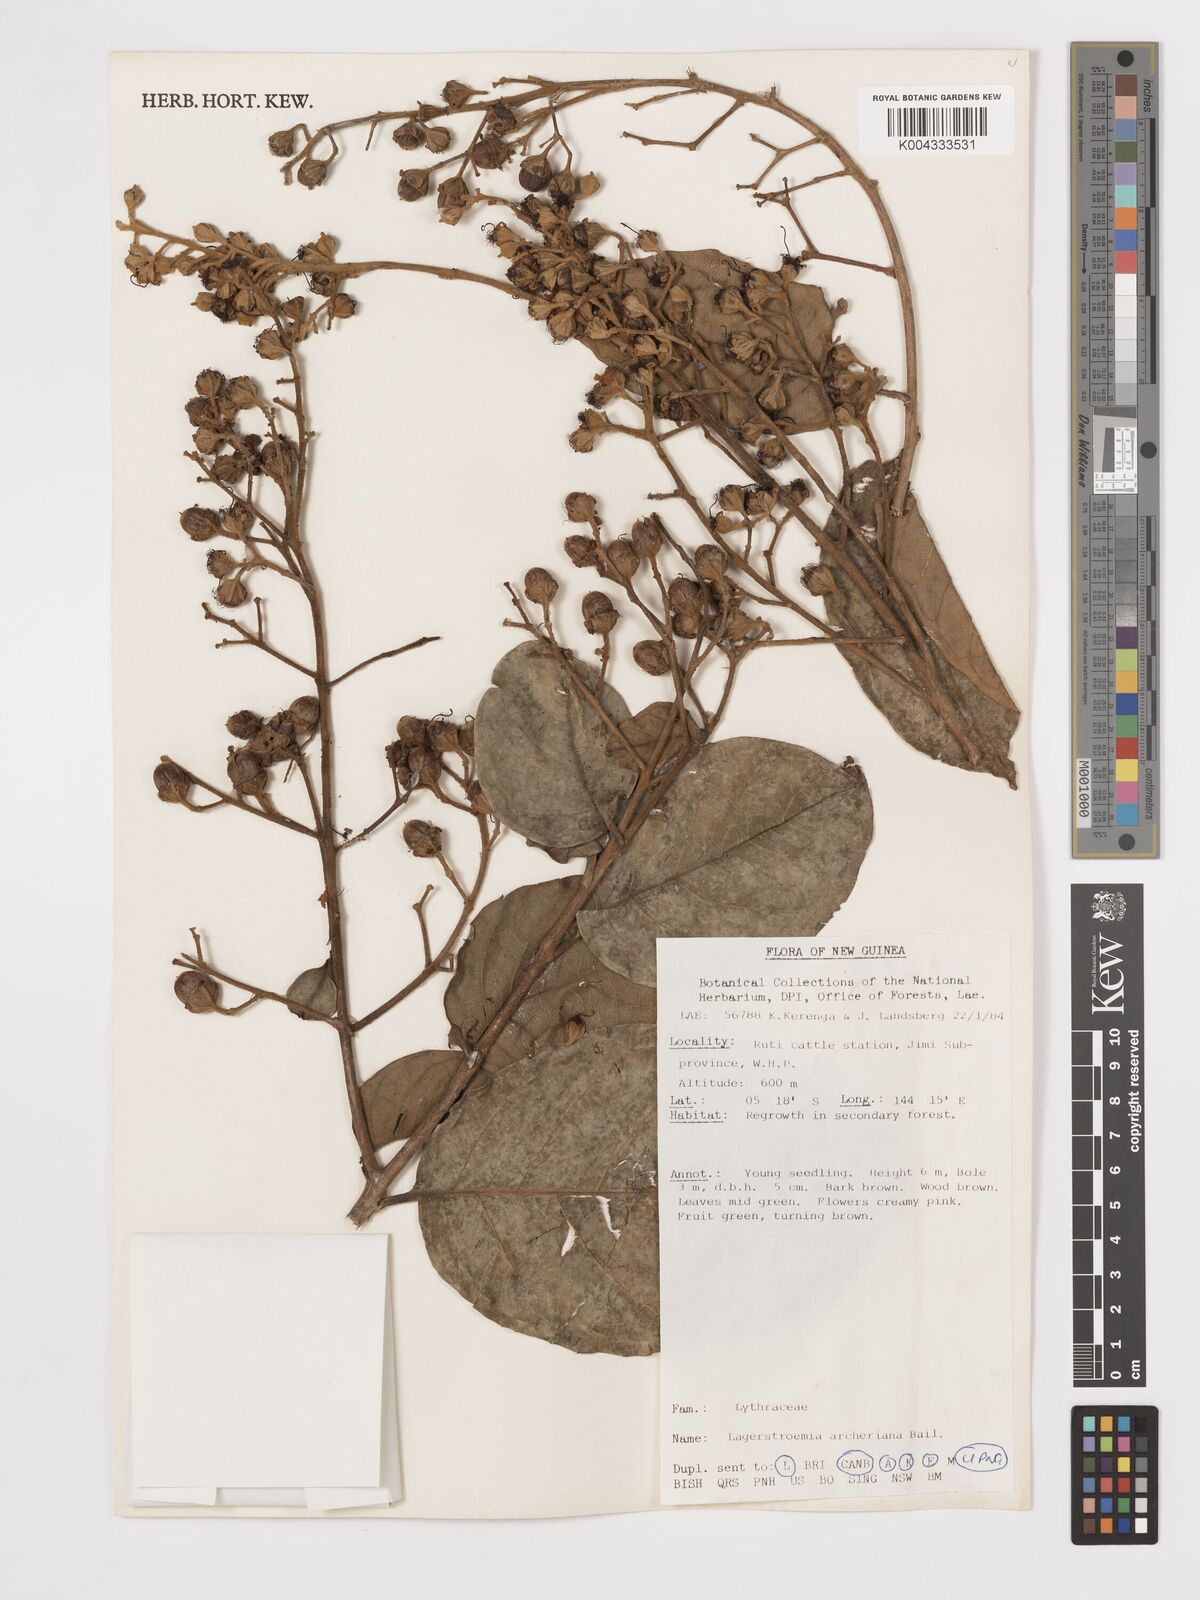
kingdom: Plantae
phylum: Tracheophyta
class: Magnoliopsida
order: Myrtales
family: Lythraceae
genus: Lagerstroemia
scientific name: Lagerstroemia engleriana
